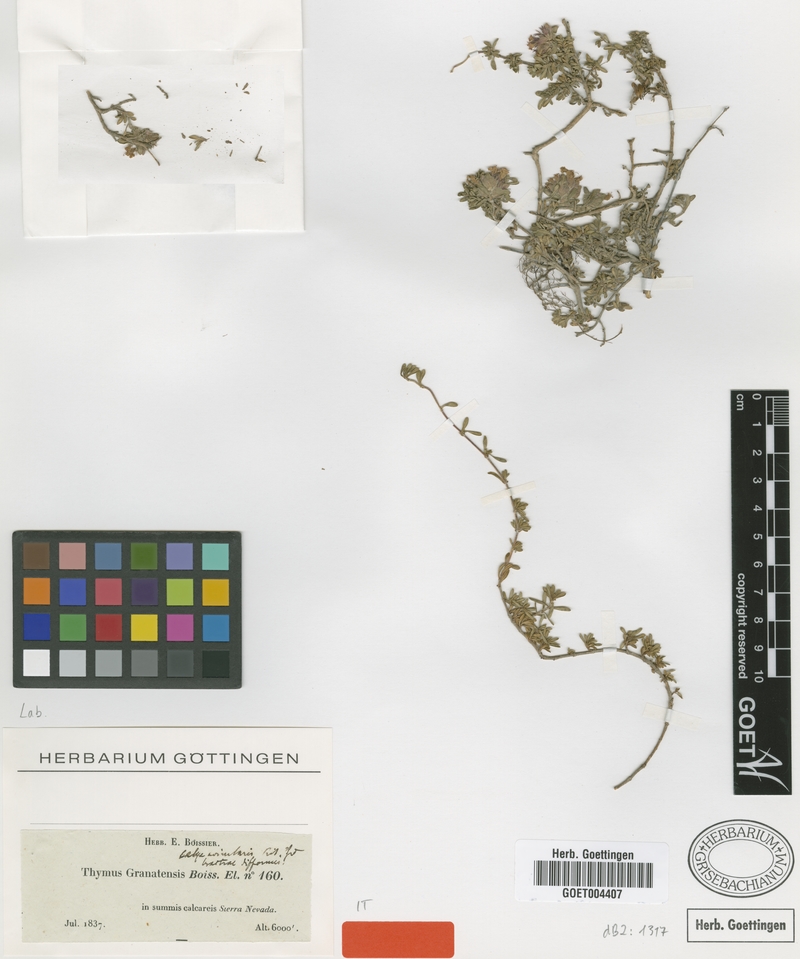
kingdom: Plantae
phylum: Tracheophyta
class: Magnoliopsida
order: Lamiales
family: Lamiaceae
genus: Thymus
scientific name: Thymus granatensis
